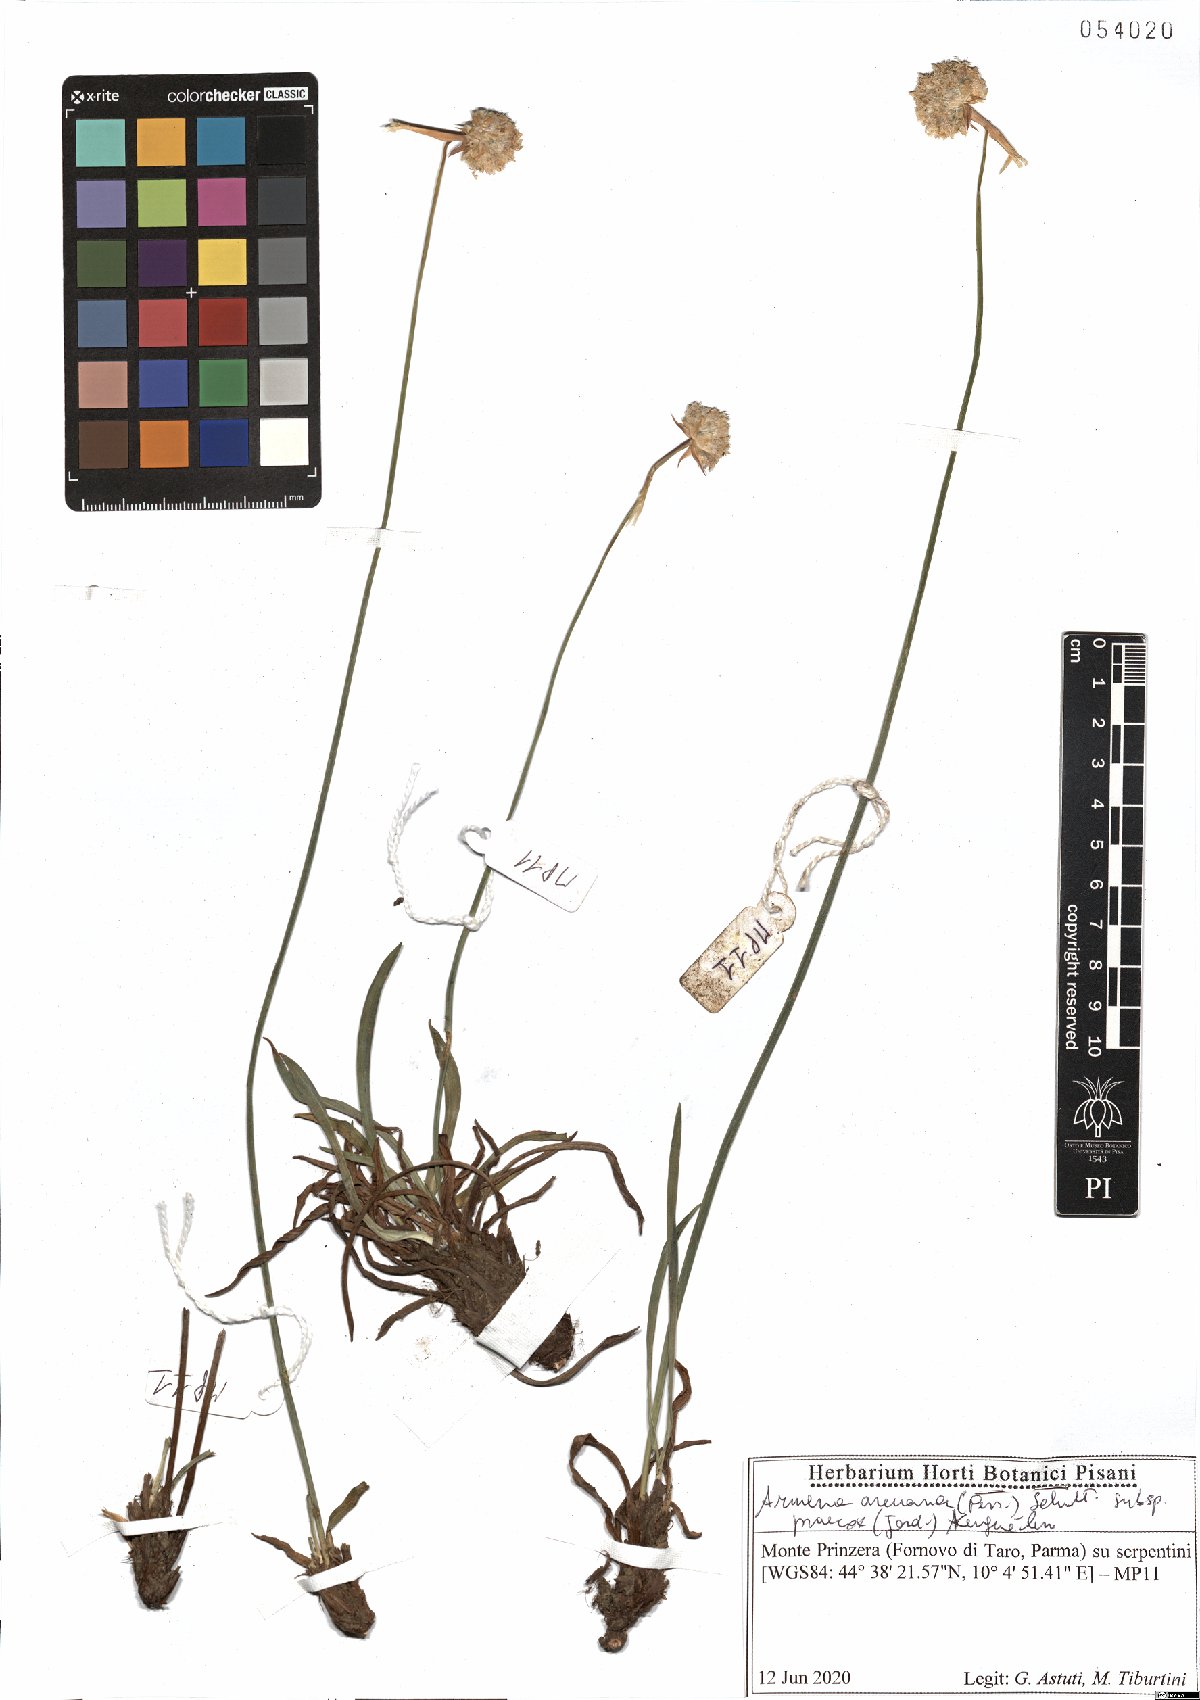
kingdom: Plantae
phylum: Tracheophyta
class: Magnoliopsida
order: Caryophyllales
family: Plumbaginaceae
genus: Armeria
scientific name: Armeria arenaria
